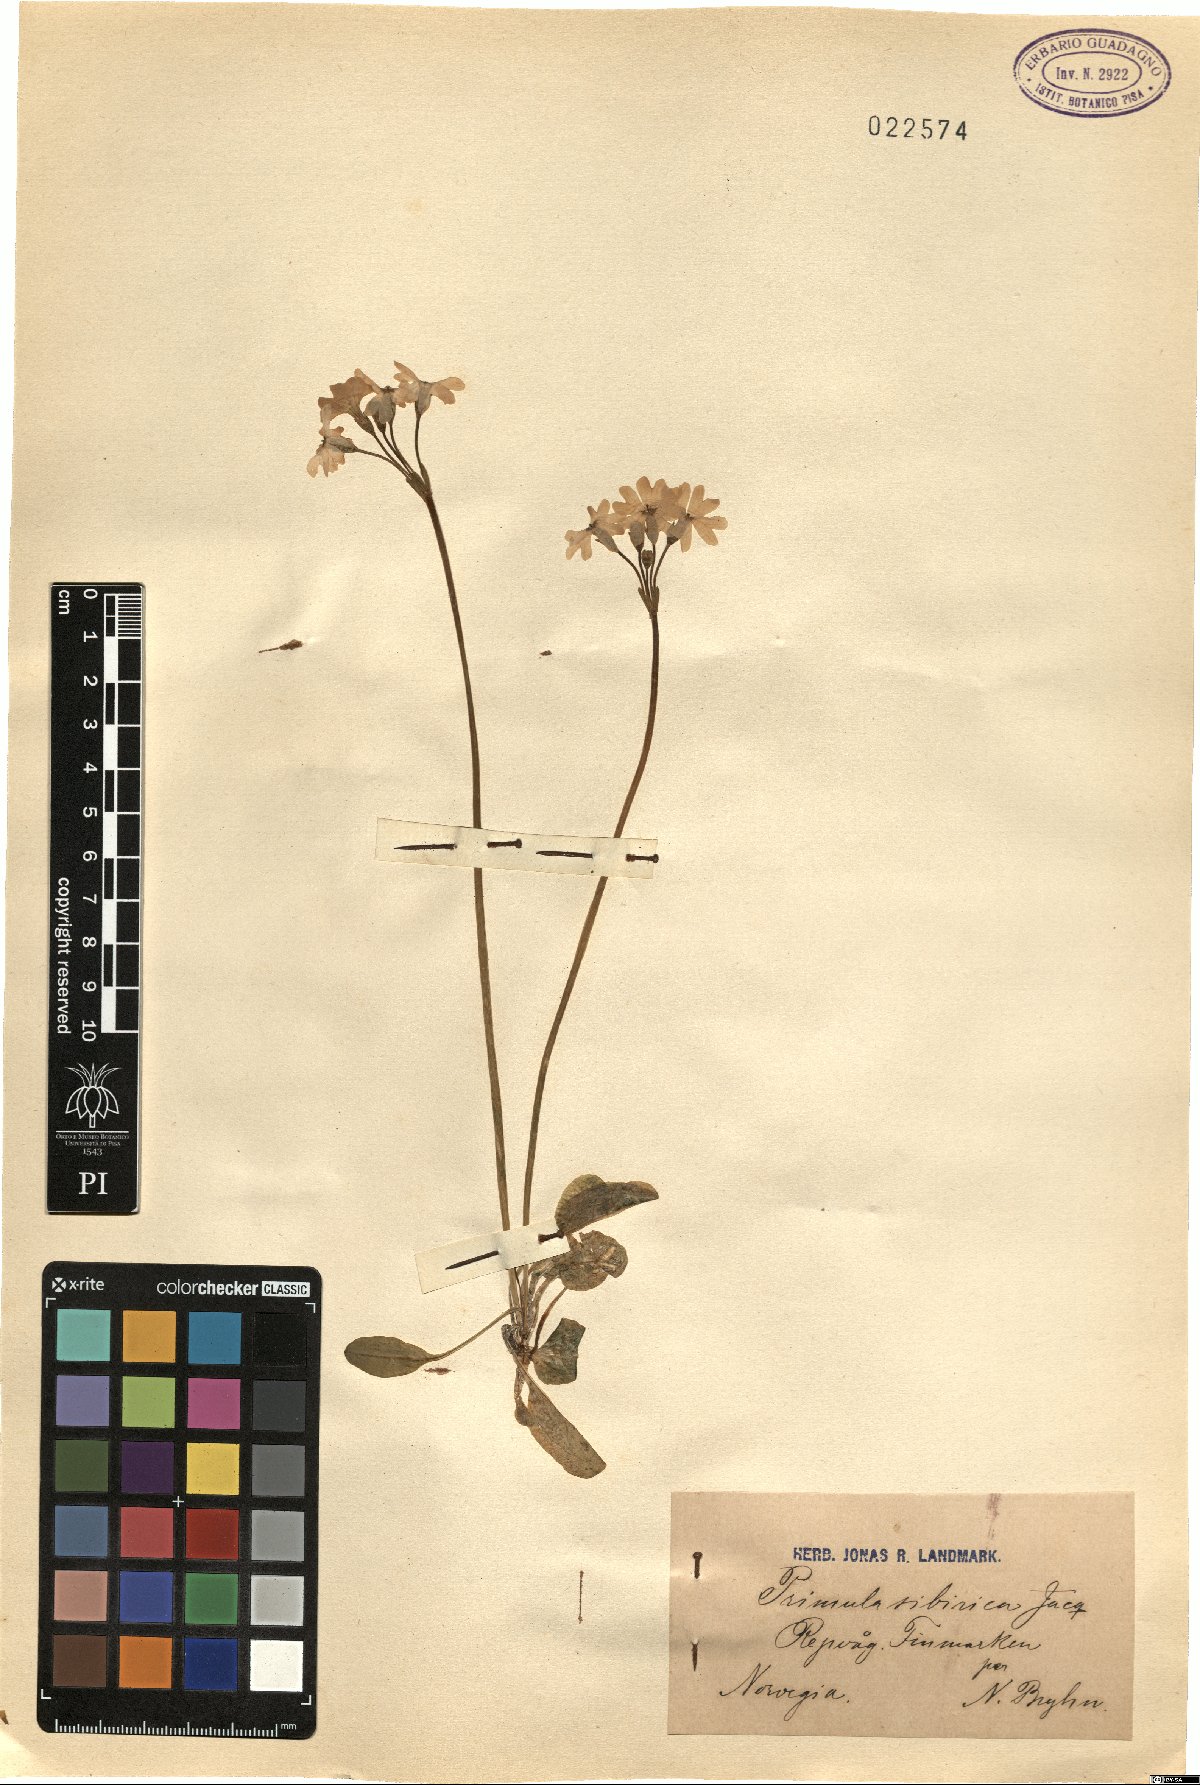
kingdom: Plantae
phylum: Tracheophyta
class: Magnoliopsida
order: Ericales
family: Primulaceae
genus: Primula
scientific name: Primula nutans
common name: Siberian primrose
